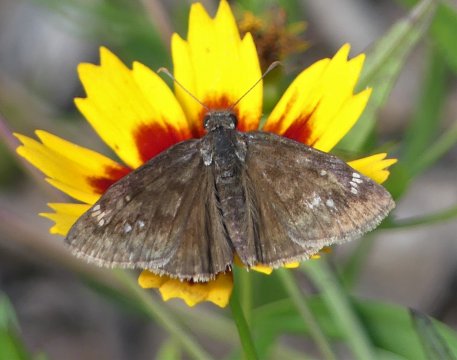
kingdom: Animalia
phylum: Arthropoda
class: Insecta
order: Lepidoptera
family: Hesperiidae
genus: Gesta
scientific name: Gesta
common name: Wild Indigo Duskywing
